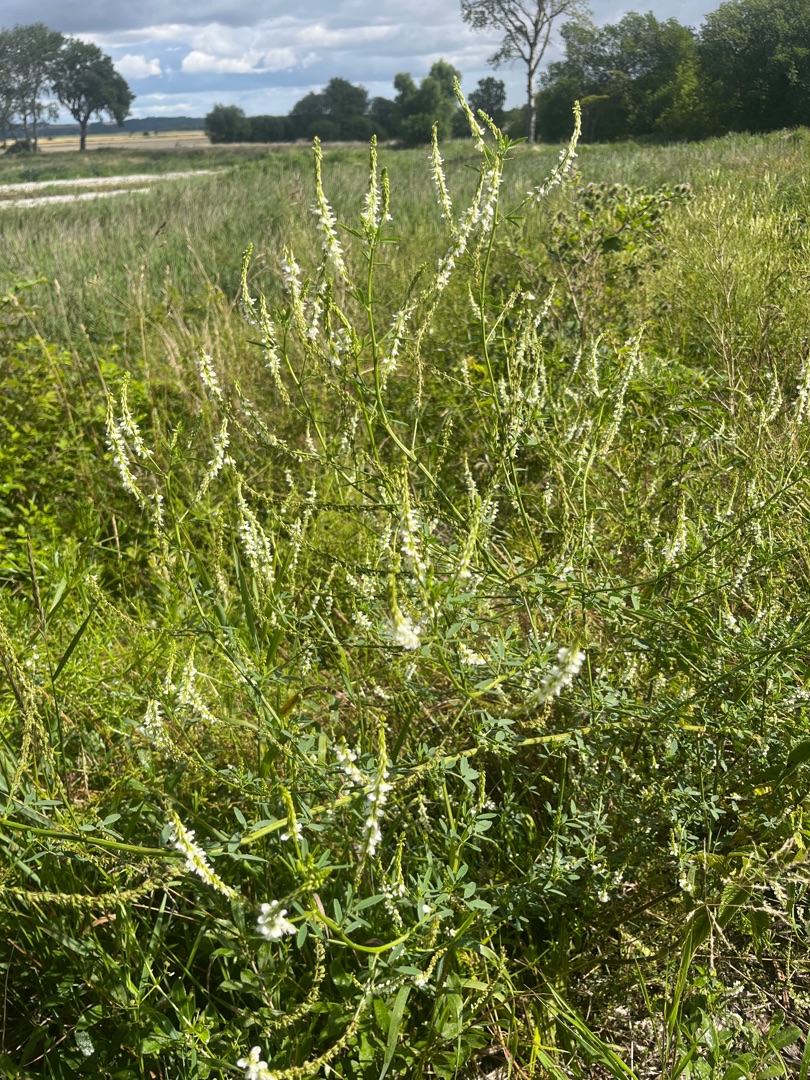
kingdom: Plantae
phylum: Tracheophyta
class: Magnoliopsida
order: Fabales
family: Fabaceae
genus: Melilotus
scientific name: Melilotus albus
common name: Hvid stenkløver
